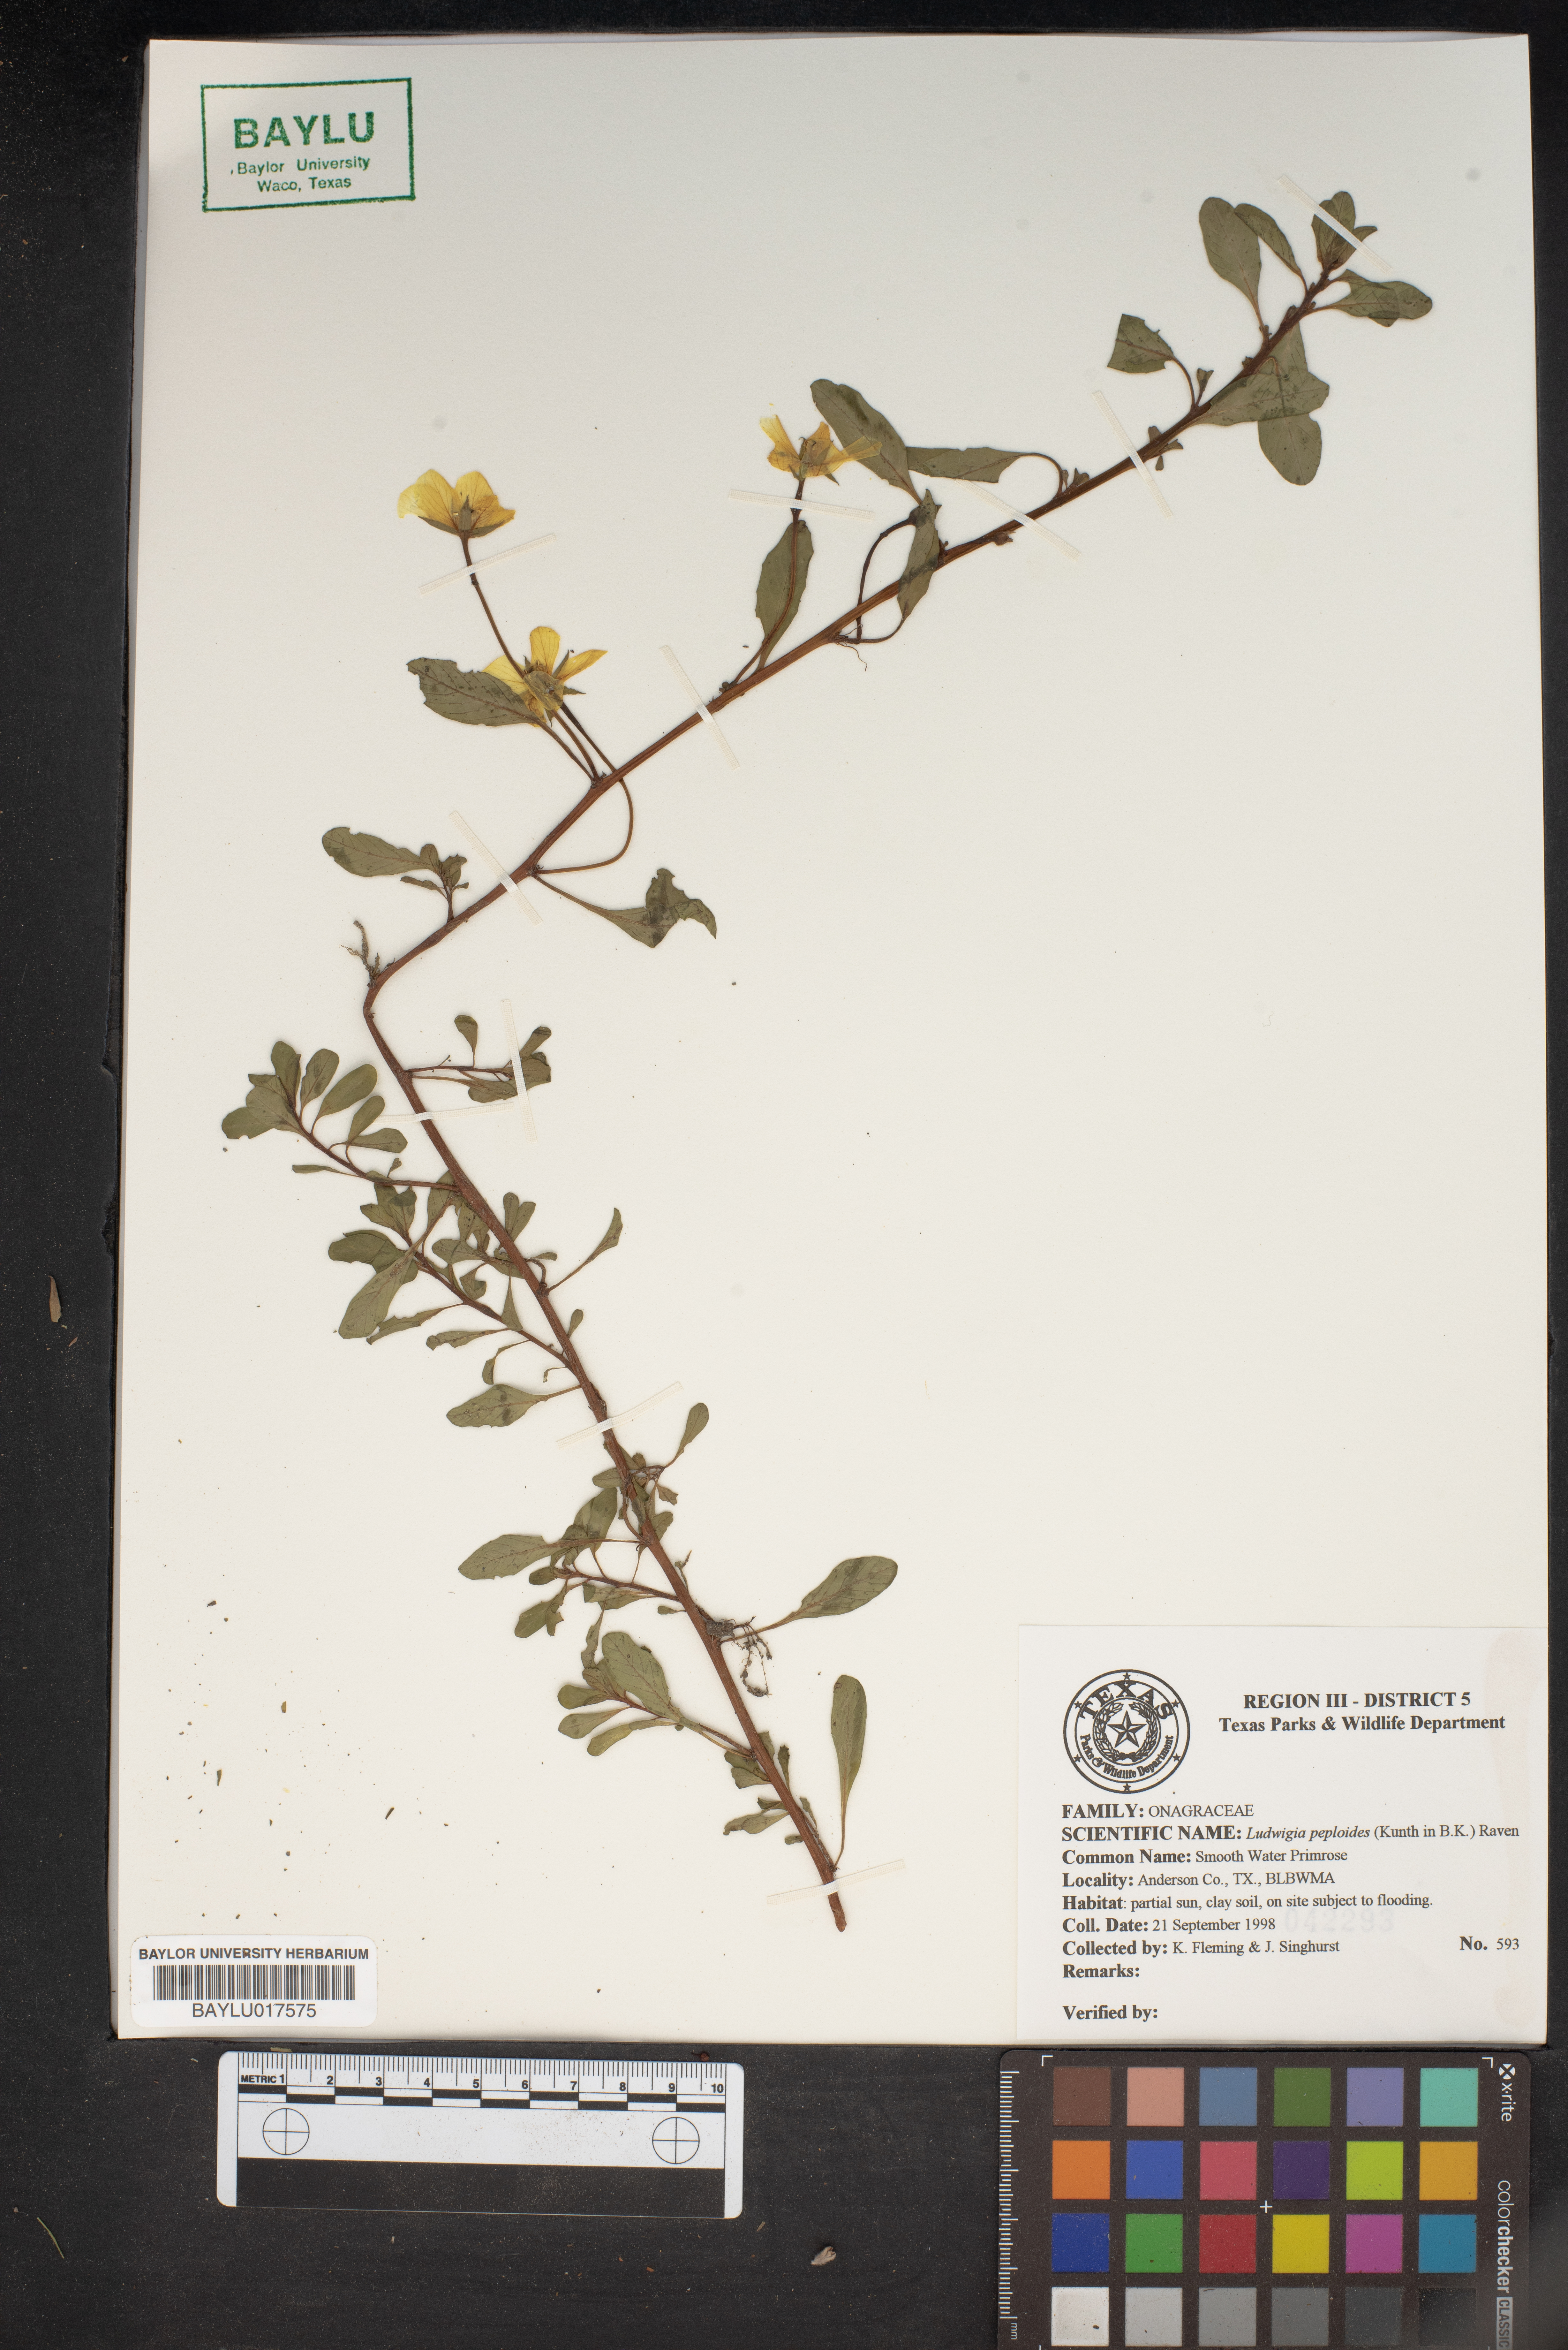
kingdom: Plantae
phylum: Tracheophyta
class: Magnoliopsida
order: Myrtales
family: Onagraceae
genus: Ludwigia
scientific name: Ludwigia peploides
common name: Floating primrose-willow
